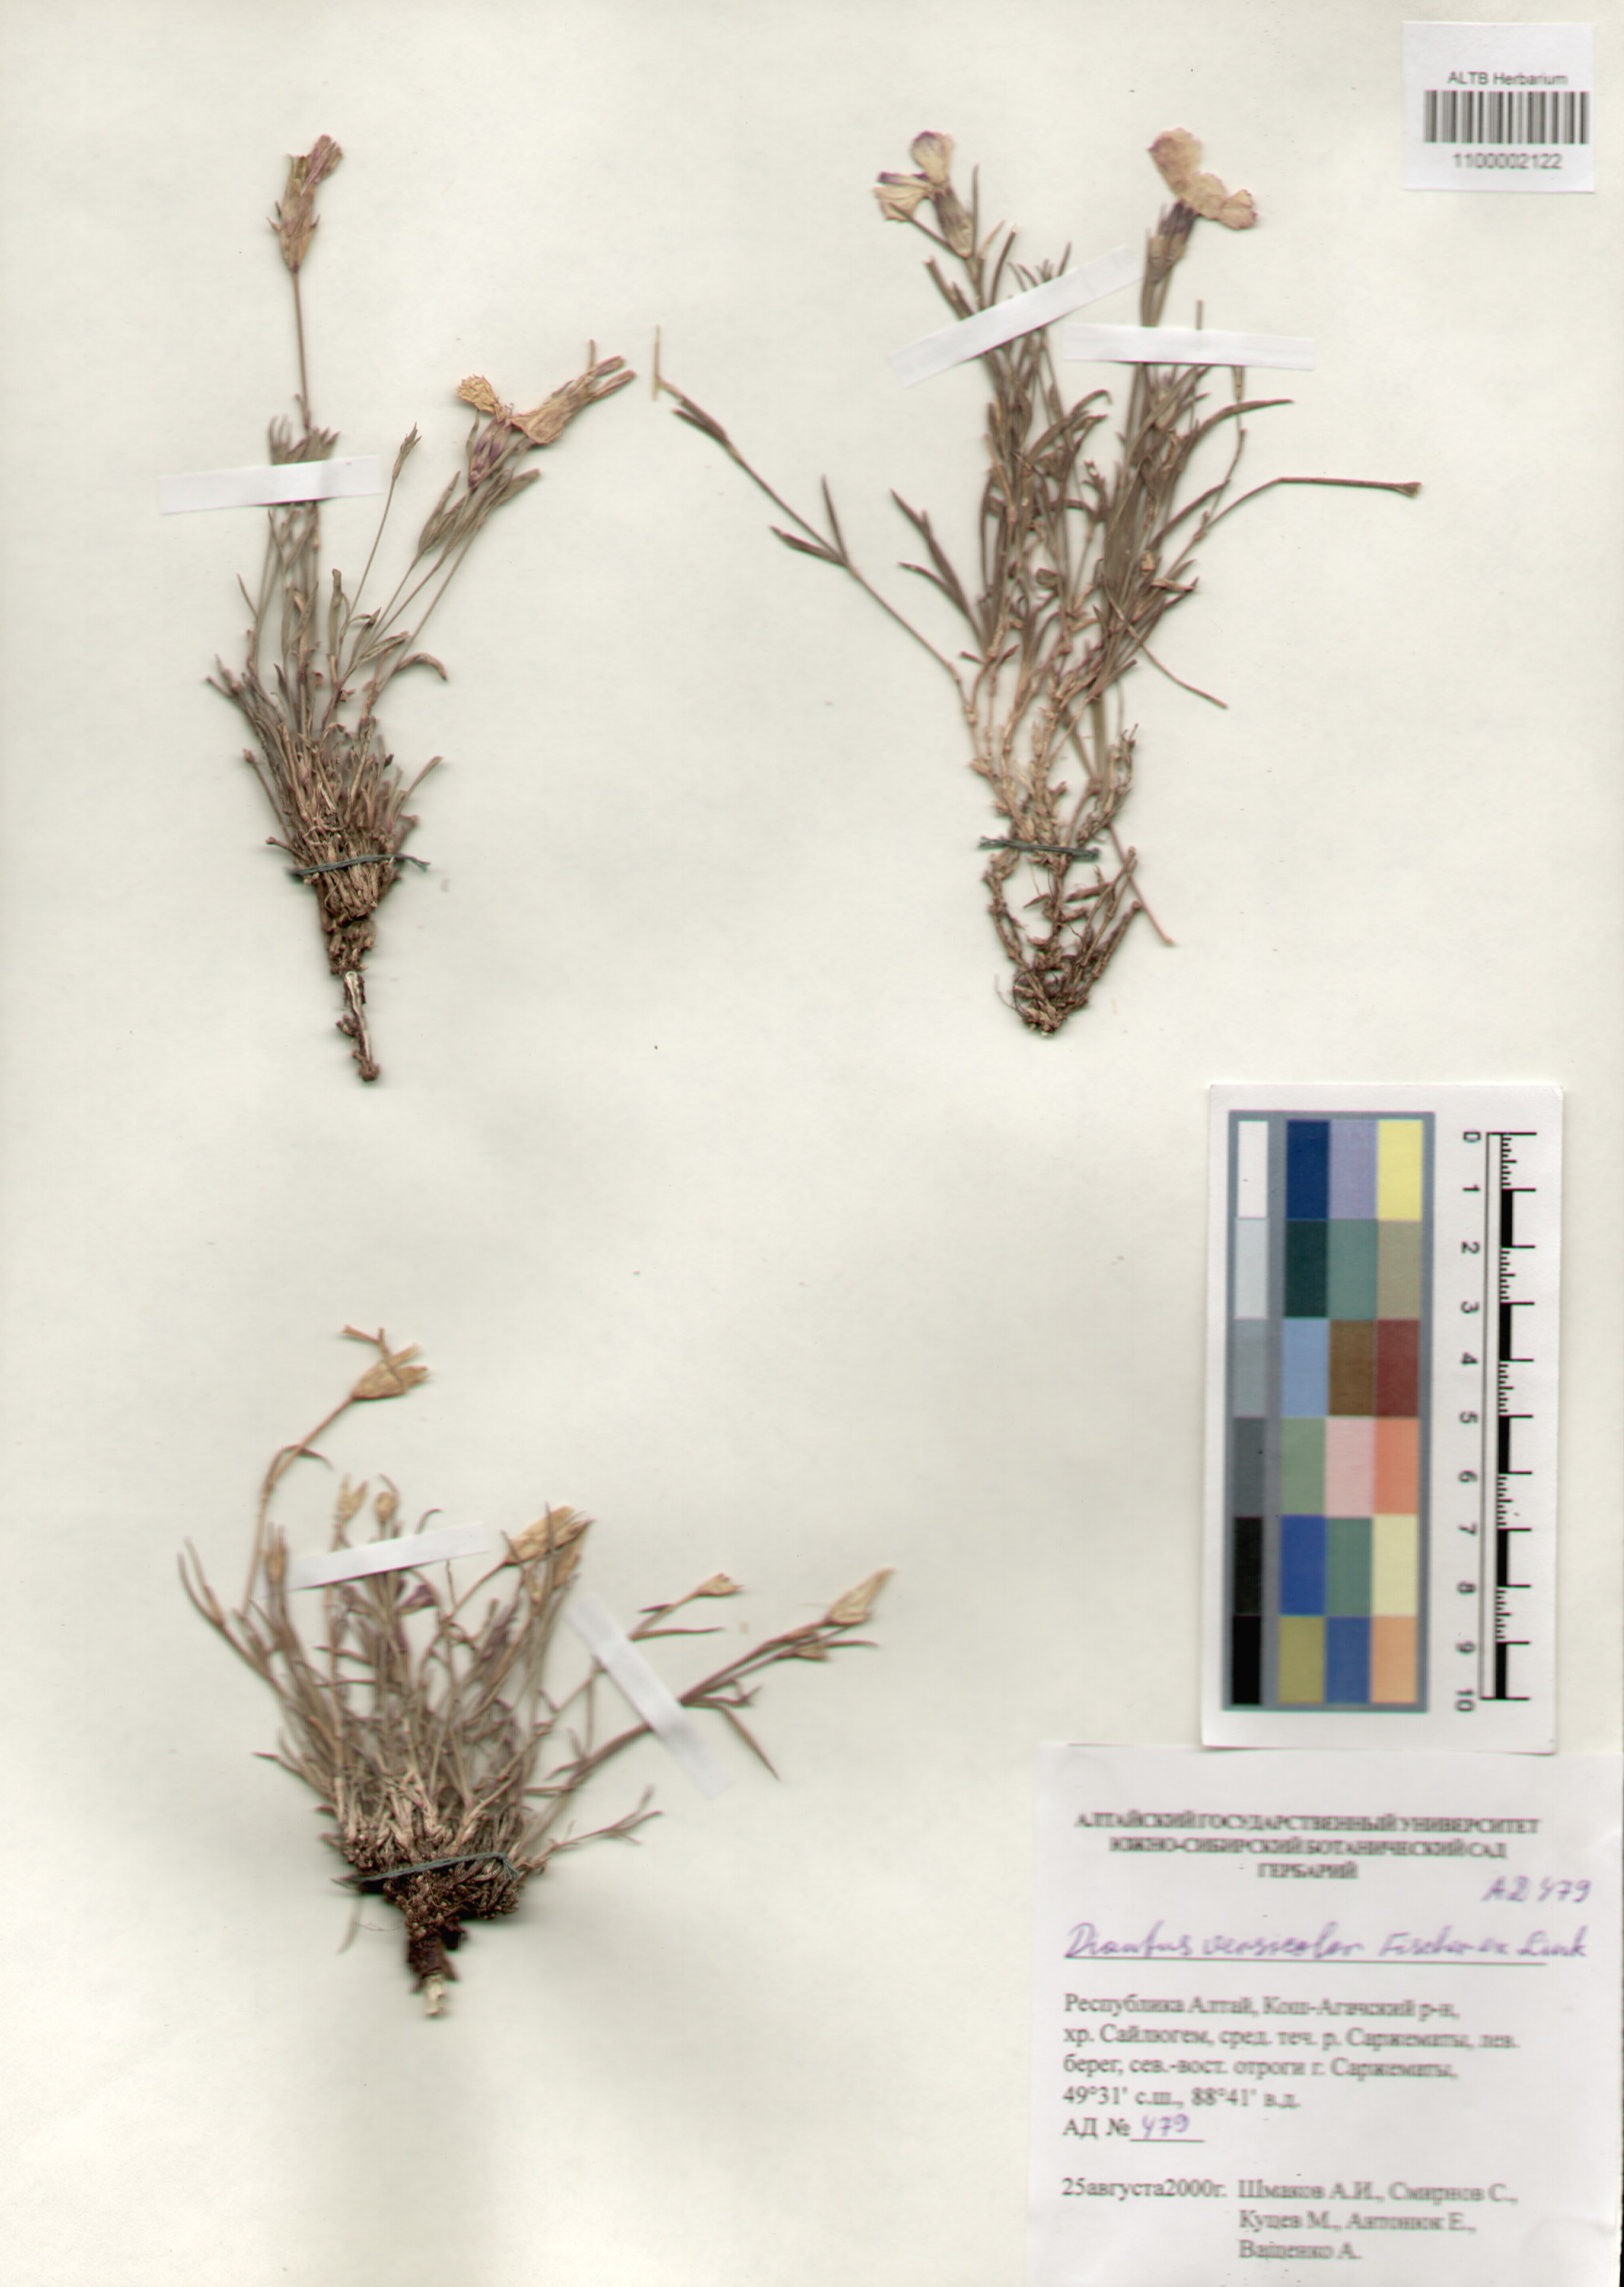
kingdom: Plantae
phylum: Tracheophyta
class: Magnoliopsida
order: Caryophyllales
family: Caryophyllaceae
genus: Dianthus
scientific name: Dianthus chinensis
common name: Rainbow pink
